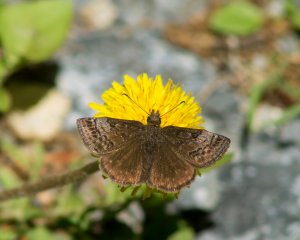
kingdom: Animalia
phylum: Arthropoda
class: Insecta
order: Lepidoptera
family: Hesperiidae
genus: Erynnis
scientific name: Erynnis icelus
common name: Dreamy Duskywing
